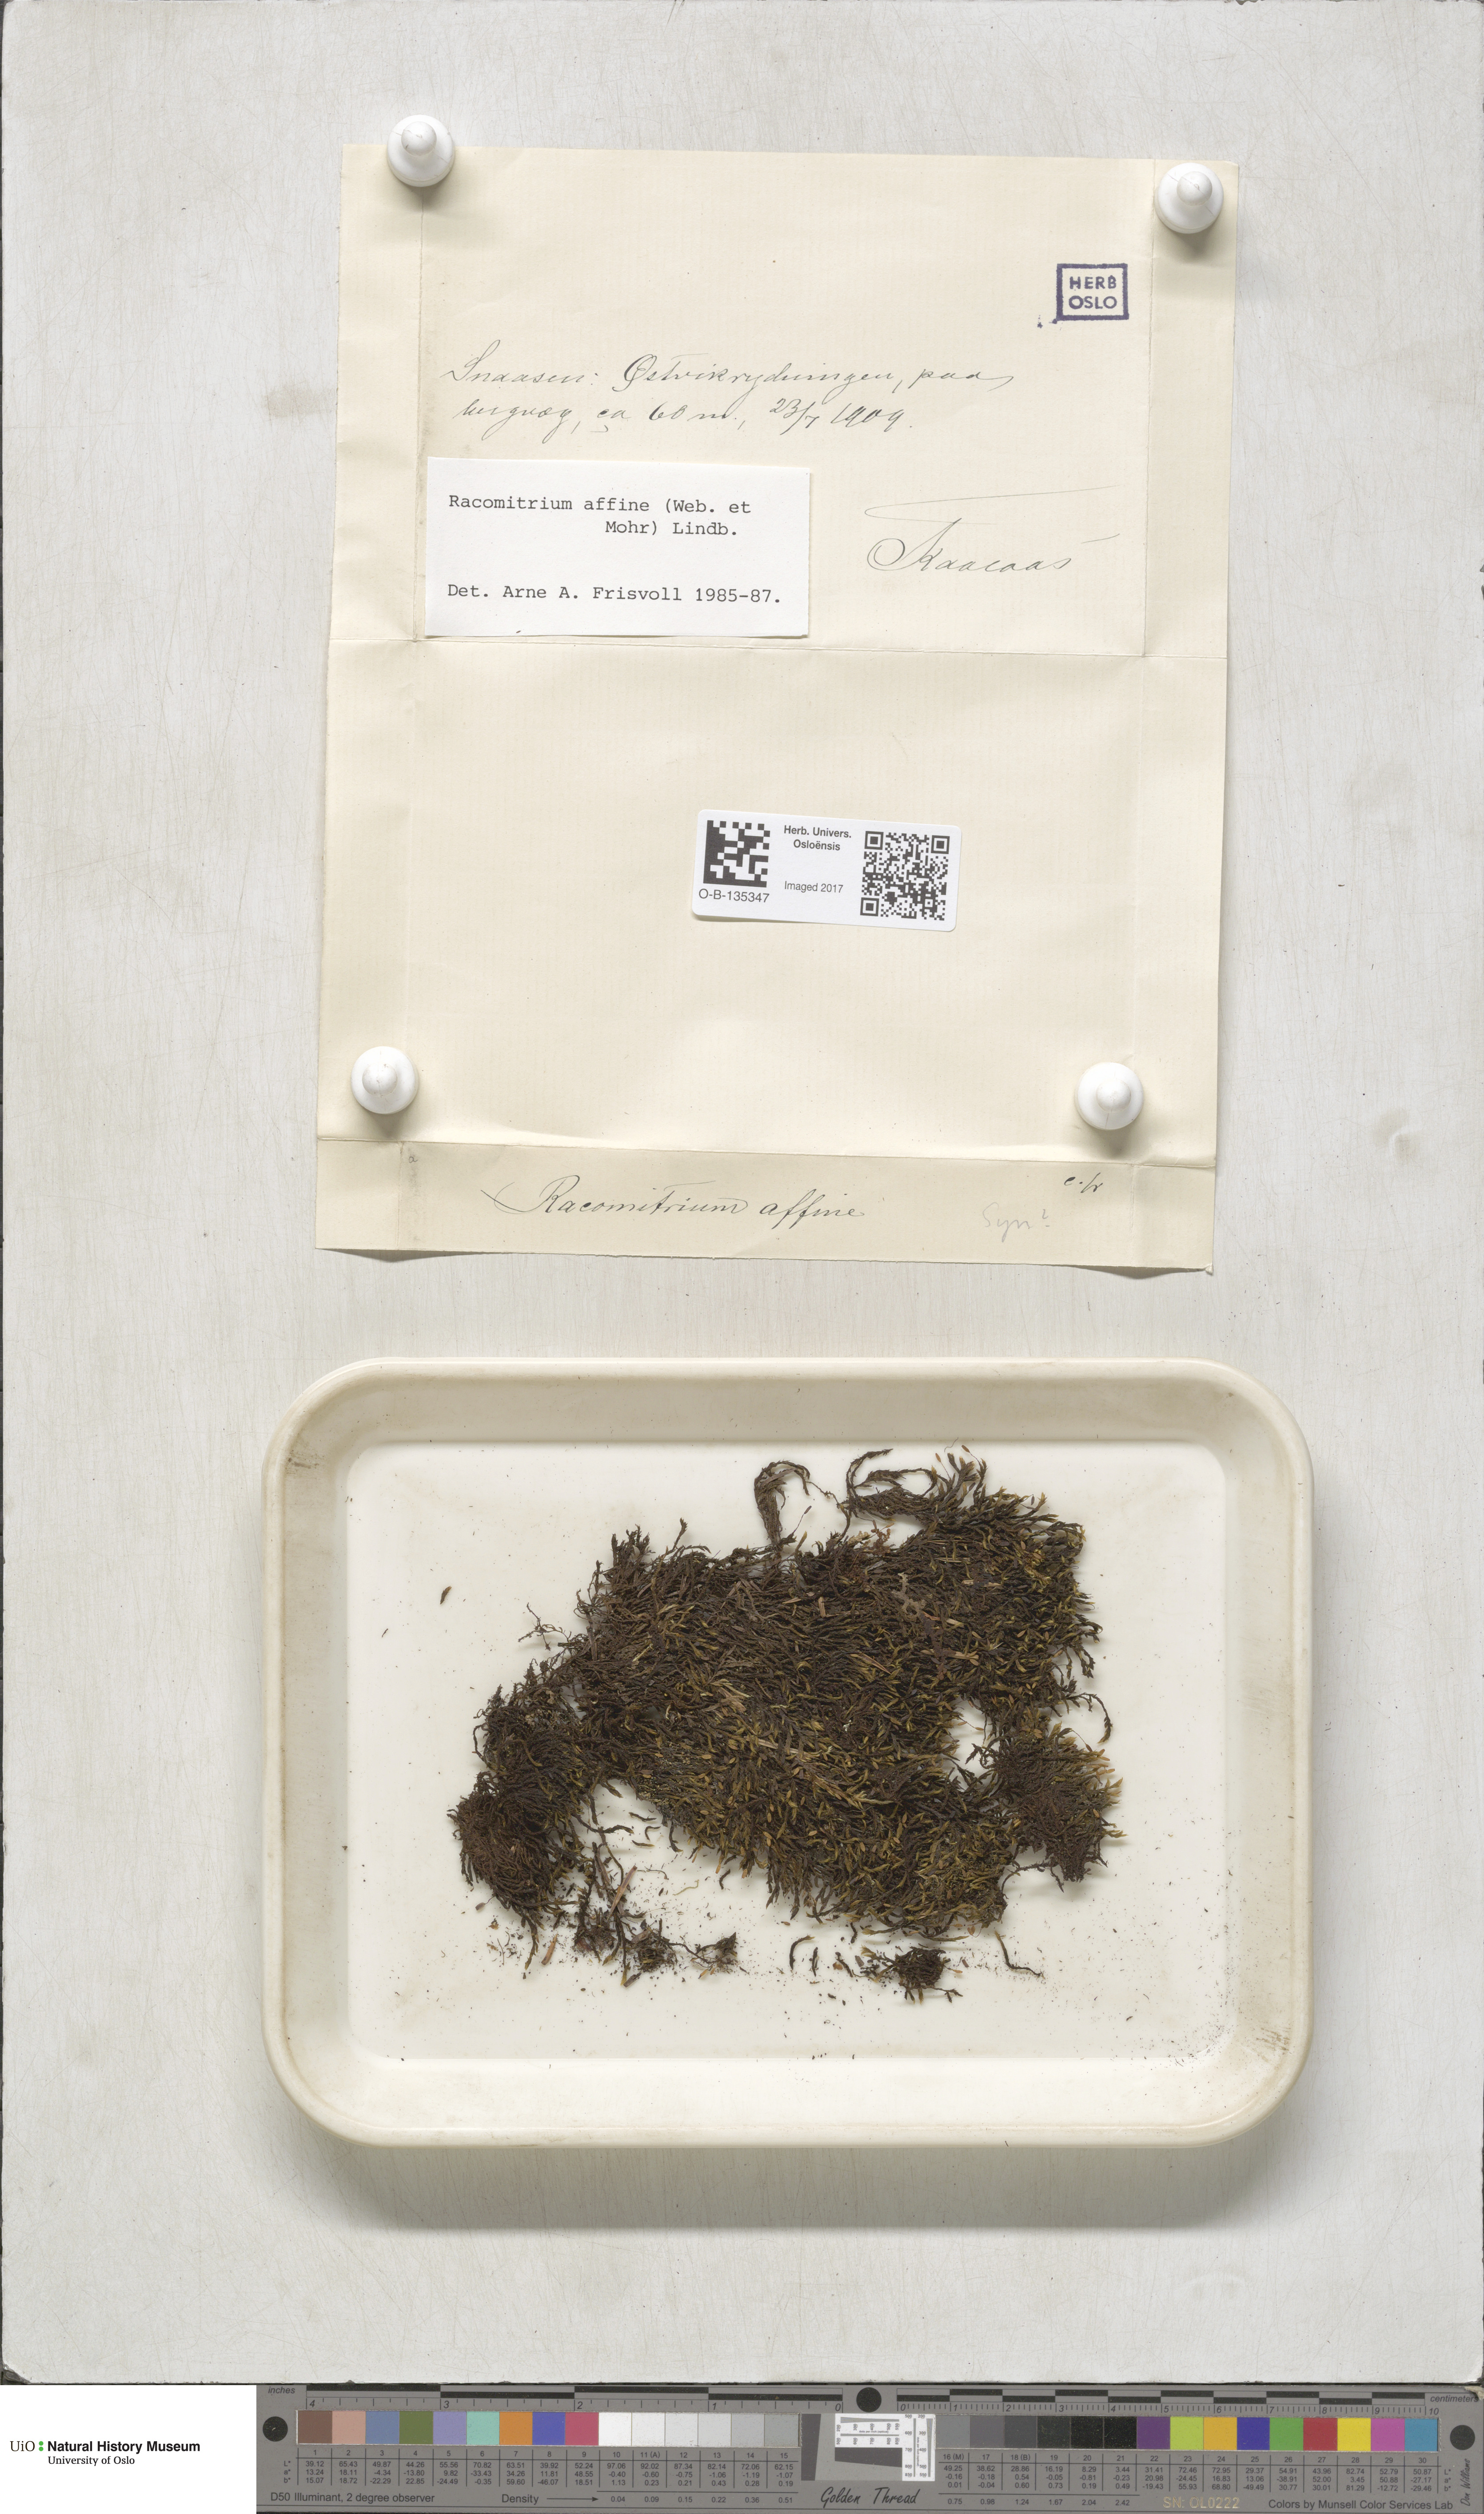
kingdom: Plantae
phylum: Bryophyta
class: Bryopsida
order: Grimmiales
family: Grimmiaceae
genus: Bucklandiella
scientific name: Bucklandiella affinis
